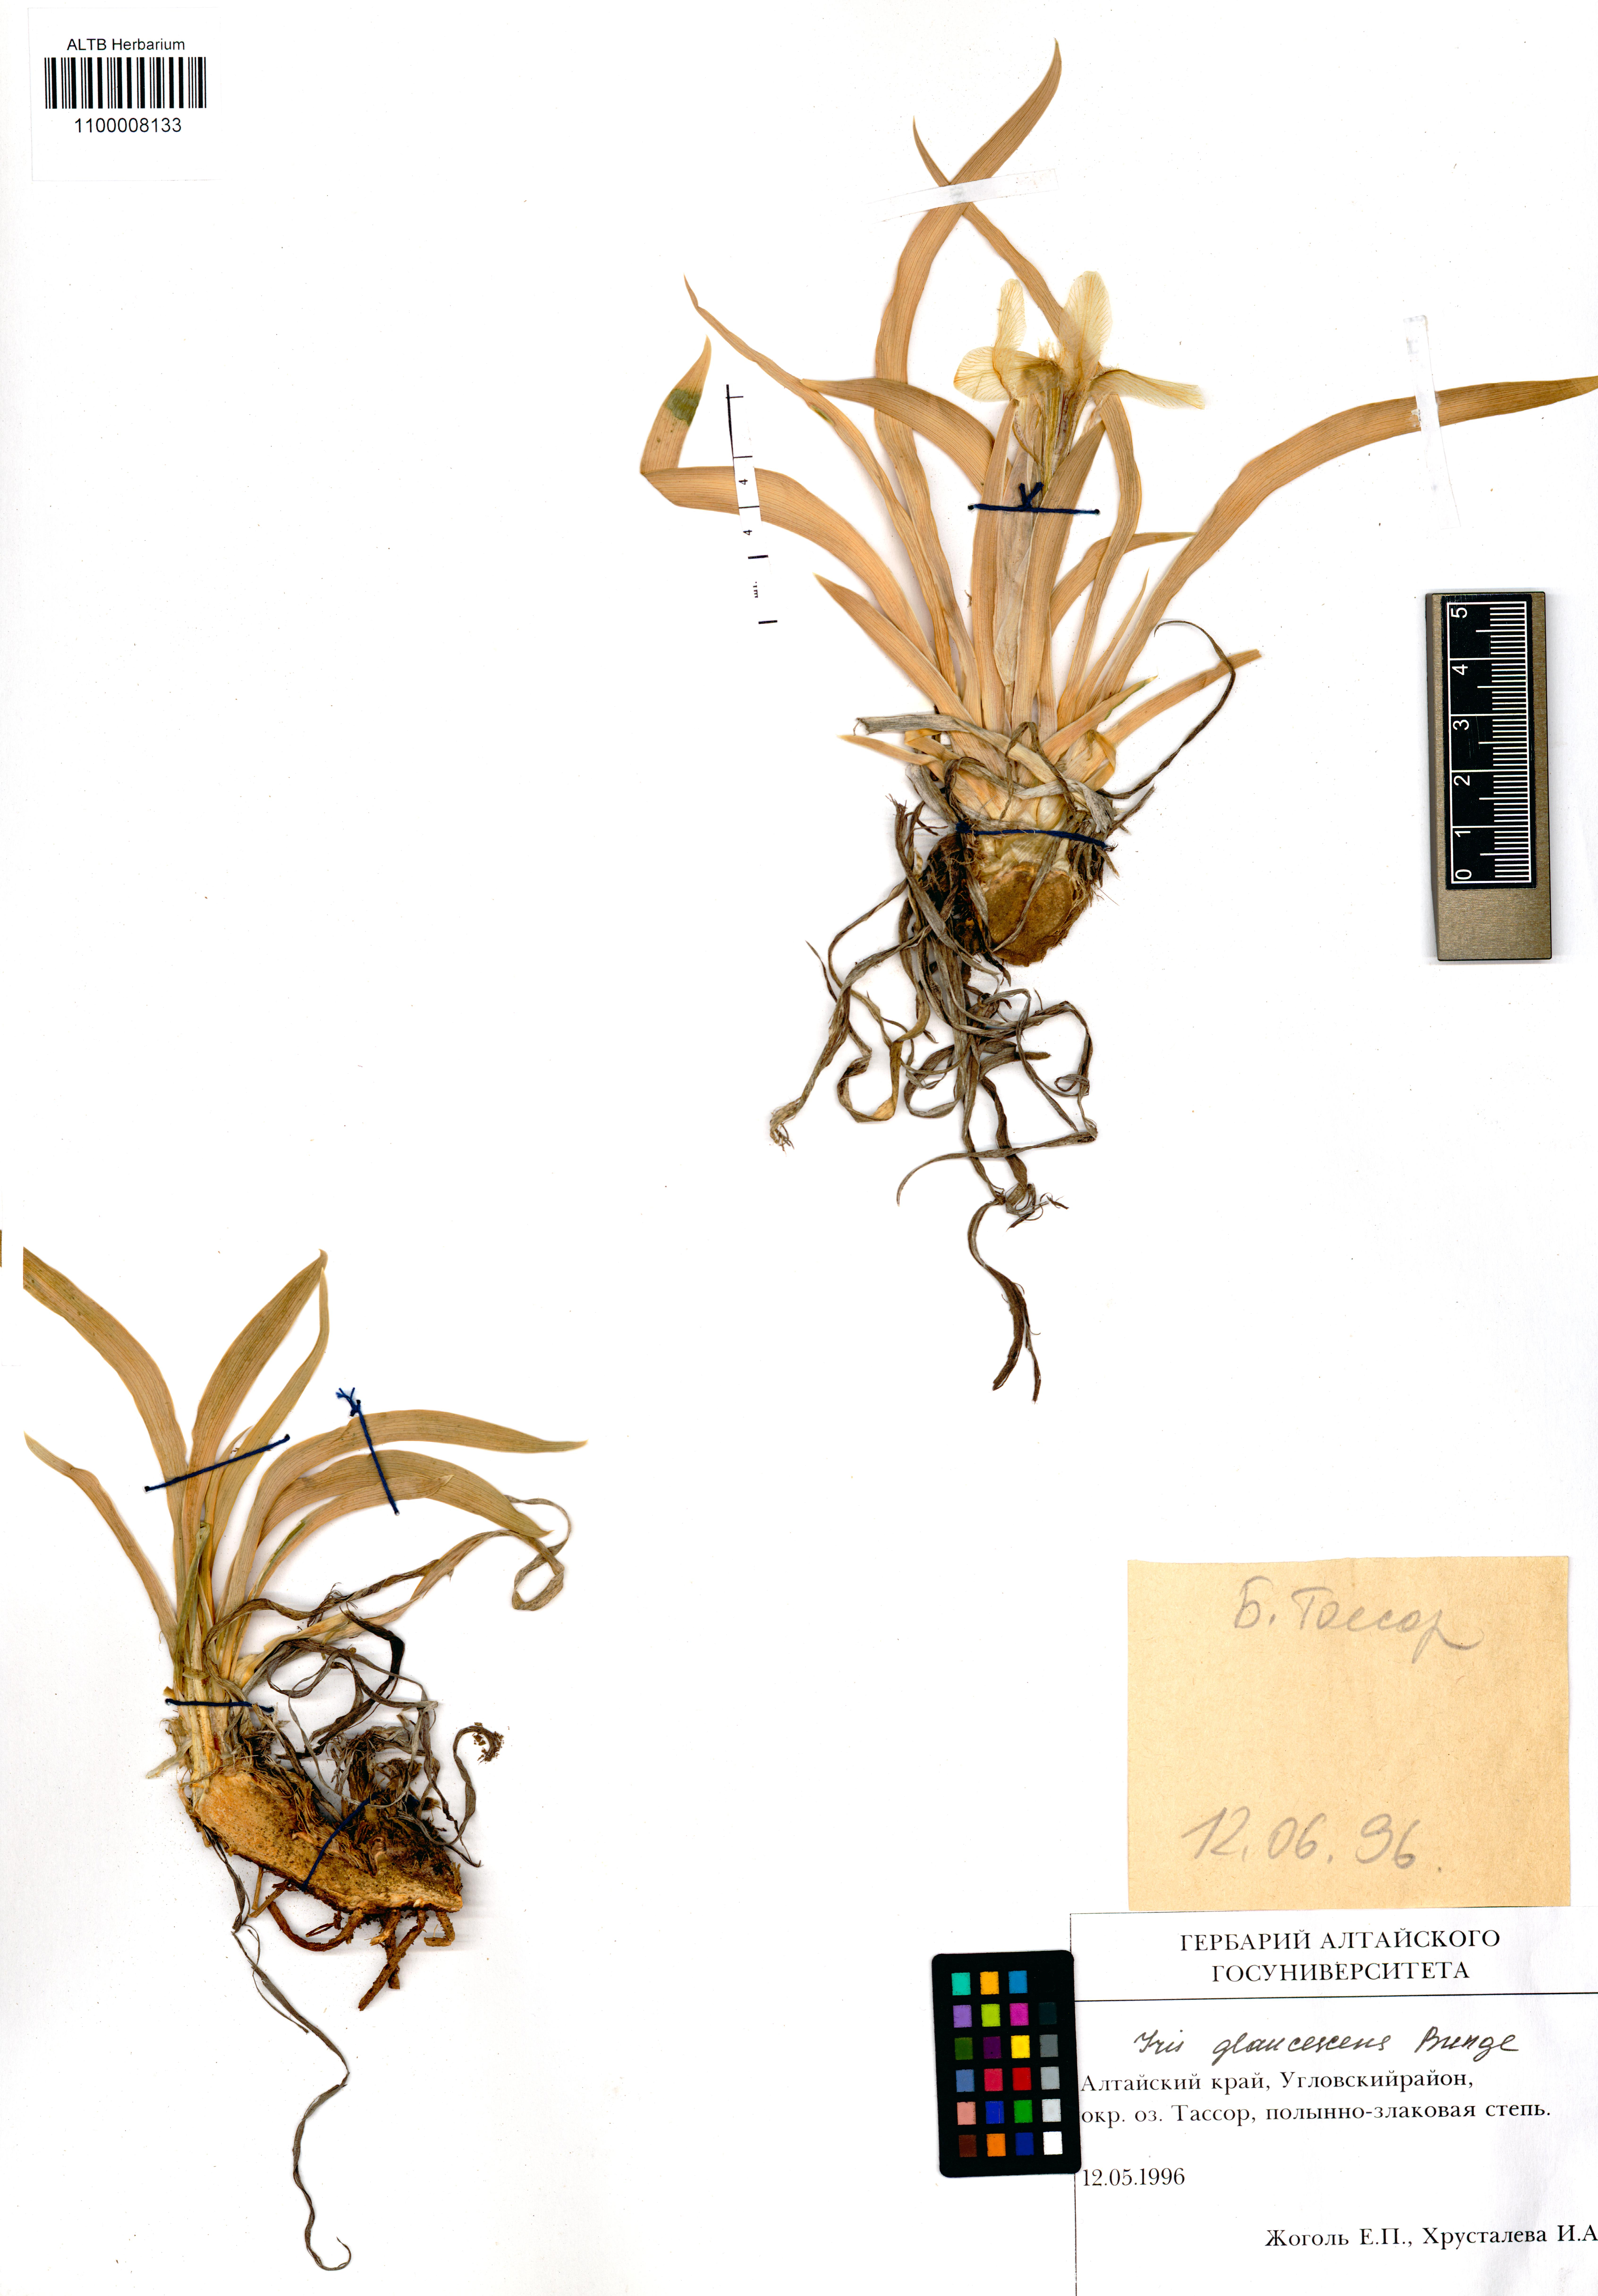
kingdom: Plantae
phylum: Tracheophyta
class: Liliopsida
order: Asparagales
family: Iridaceae
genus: Iris
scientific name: Iris glaucescens
